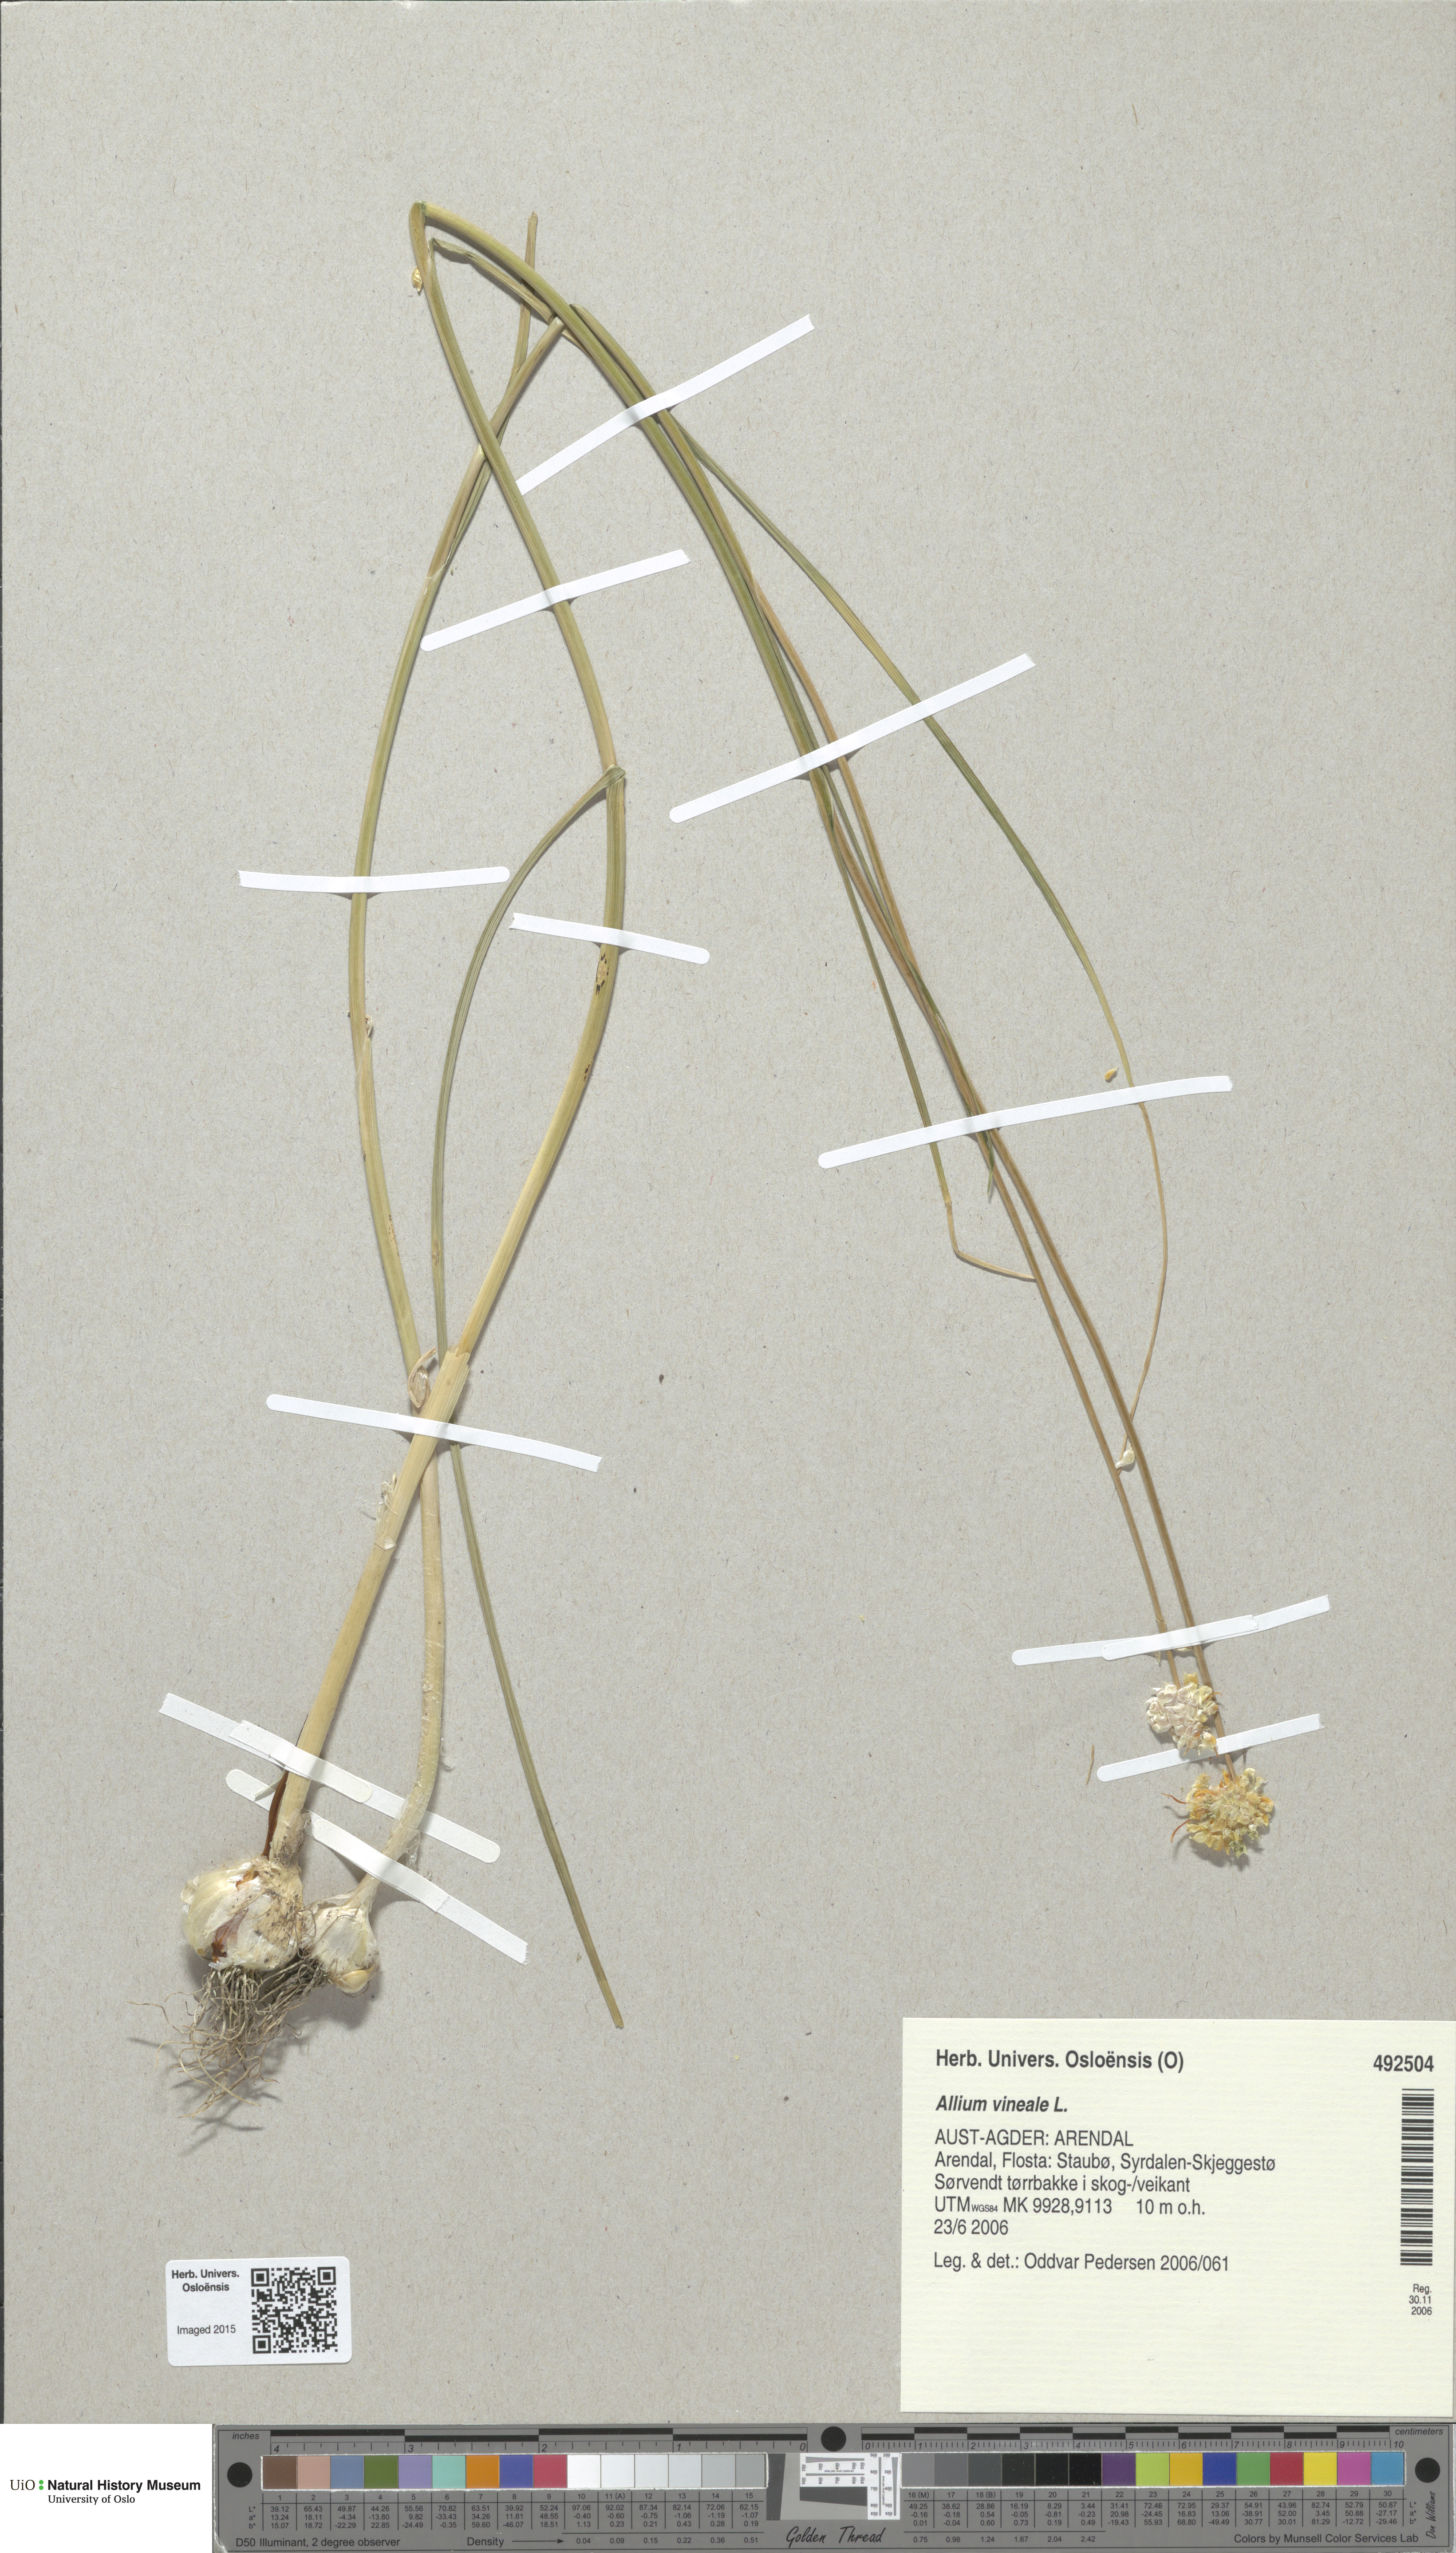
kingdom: Plantae
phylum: Tracheophyta
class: Liliopsida
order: Asparagales
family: Amaryllidaceae
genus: Allium
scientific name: Allium vineale
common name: Crow garlic
